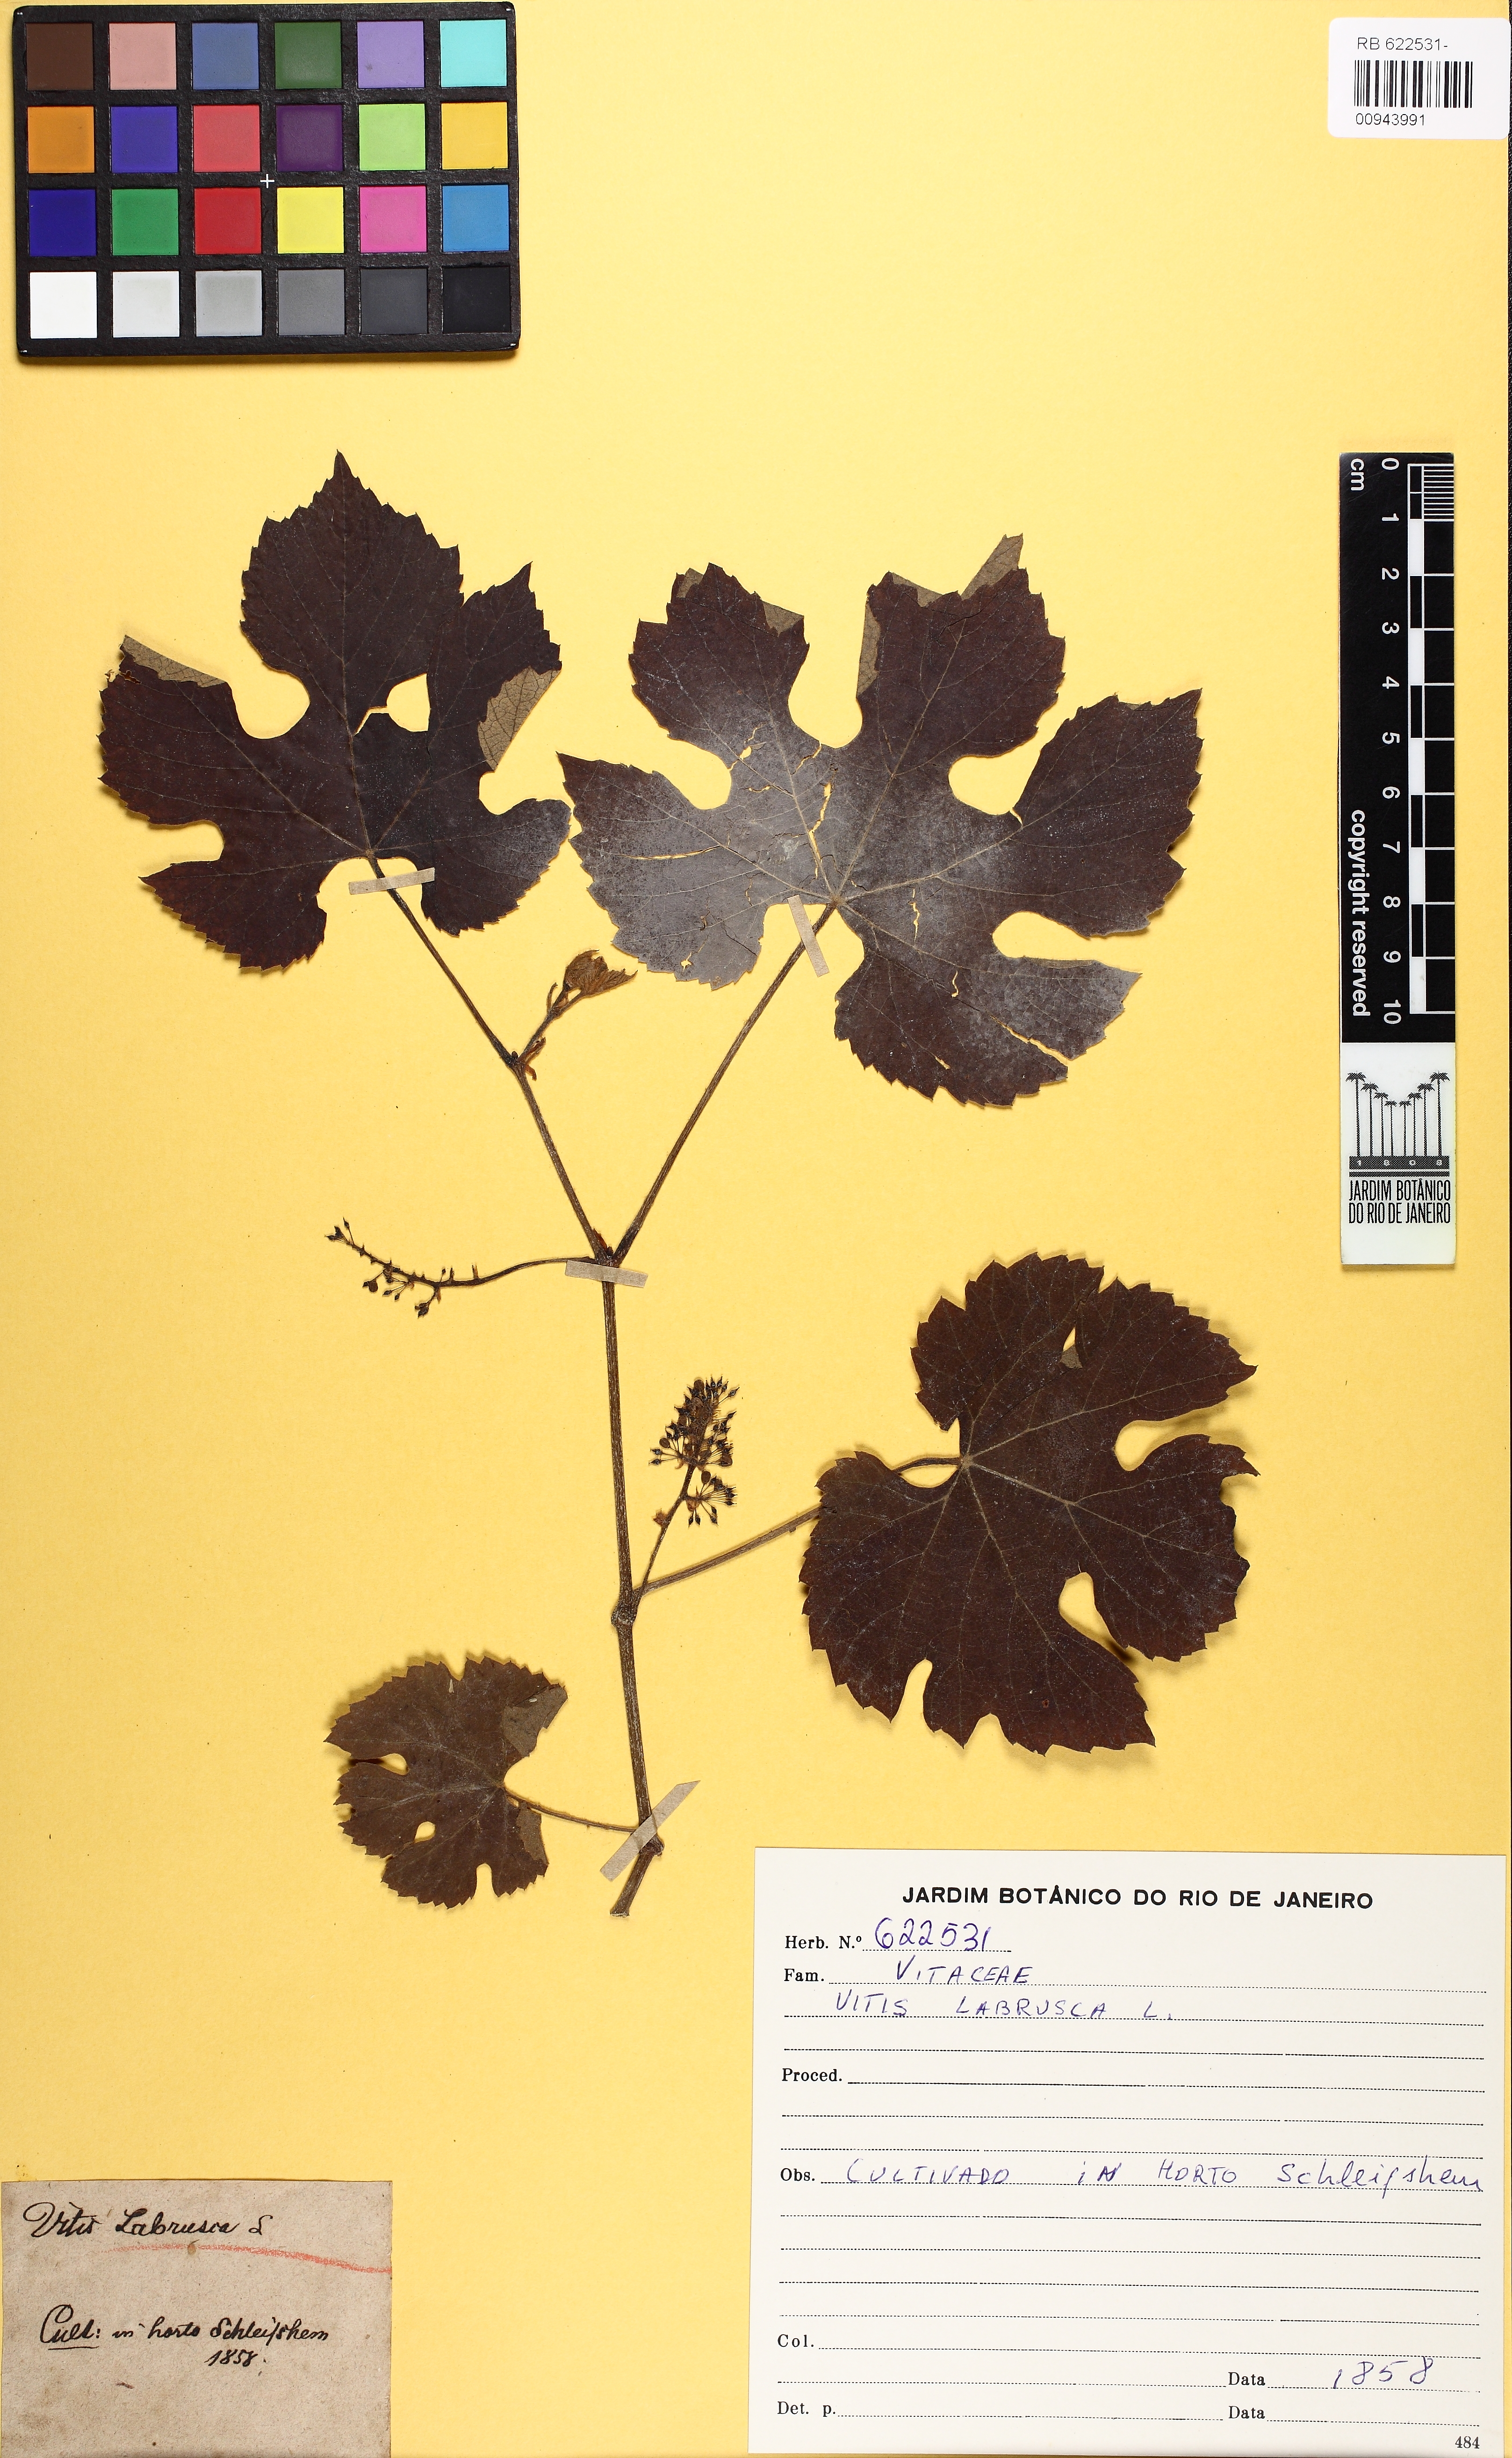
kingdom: Plantae
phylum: Tracheophyta
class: Magnoliopsida
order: Vitales
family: Vitaceae
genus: Vitis
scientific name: Vitis labrusca
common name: Concord grape
